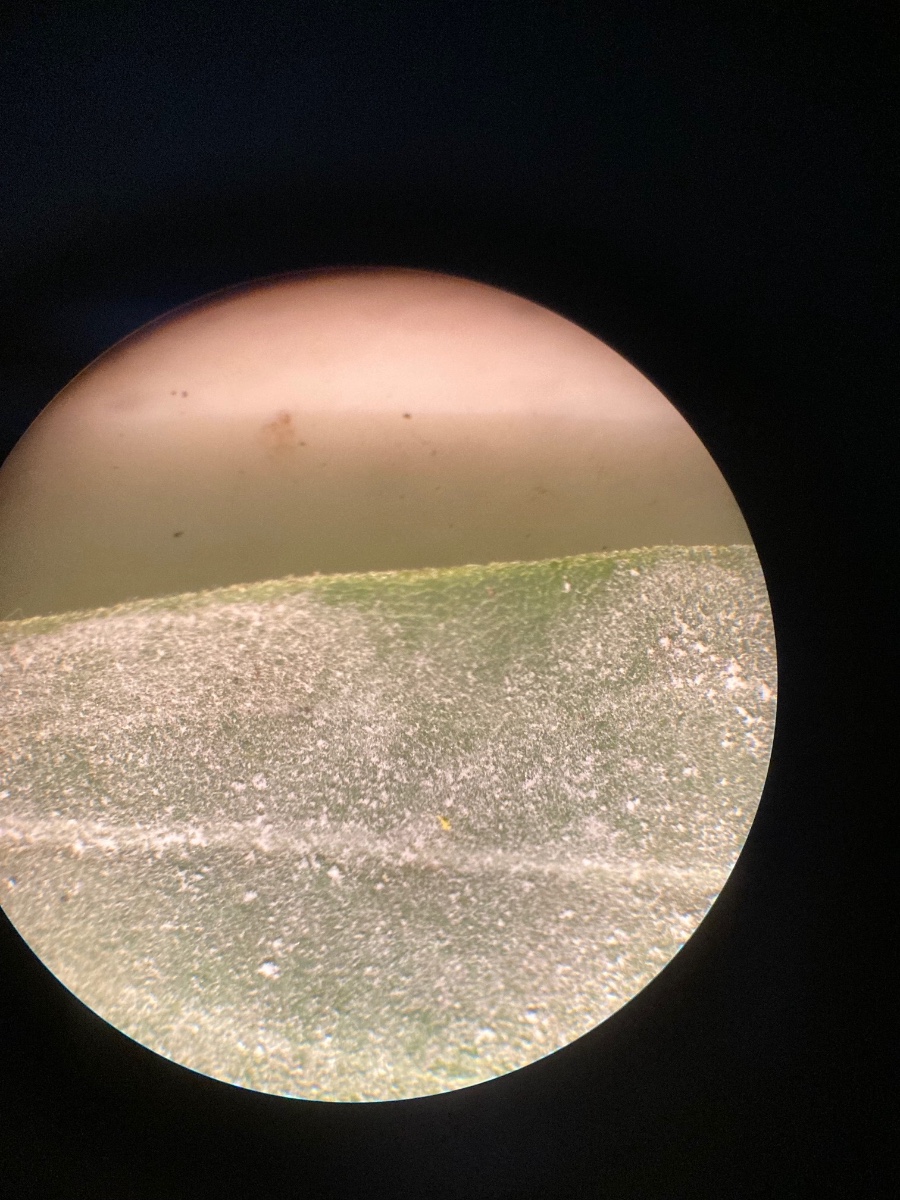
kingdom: Fungi
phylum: Ascomycota
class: Leotiomycetes
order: Helotiales
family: Erysiphaceae
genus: Golovinomyces
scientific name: Golovinomyces asterum
